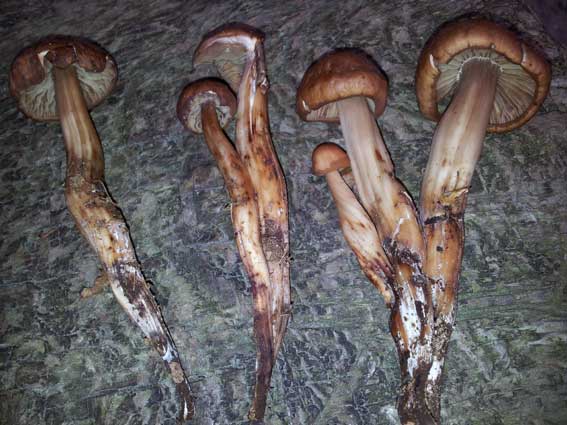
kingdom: Fungi
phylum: Basidiomycota
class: Agaricomycetes
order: Agaricales
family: Omphalotaceae
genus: Gymnopus
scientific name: Gymnopus fusipes
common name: tenstokket fladhat
